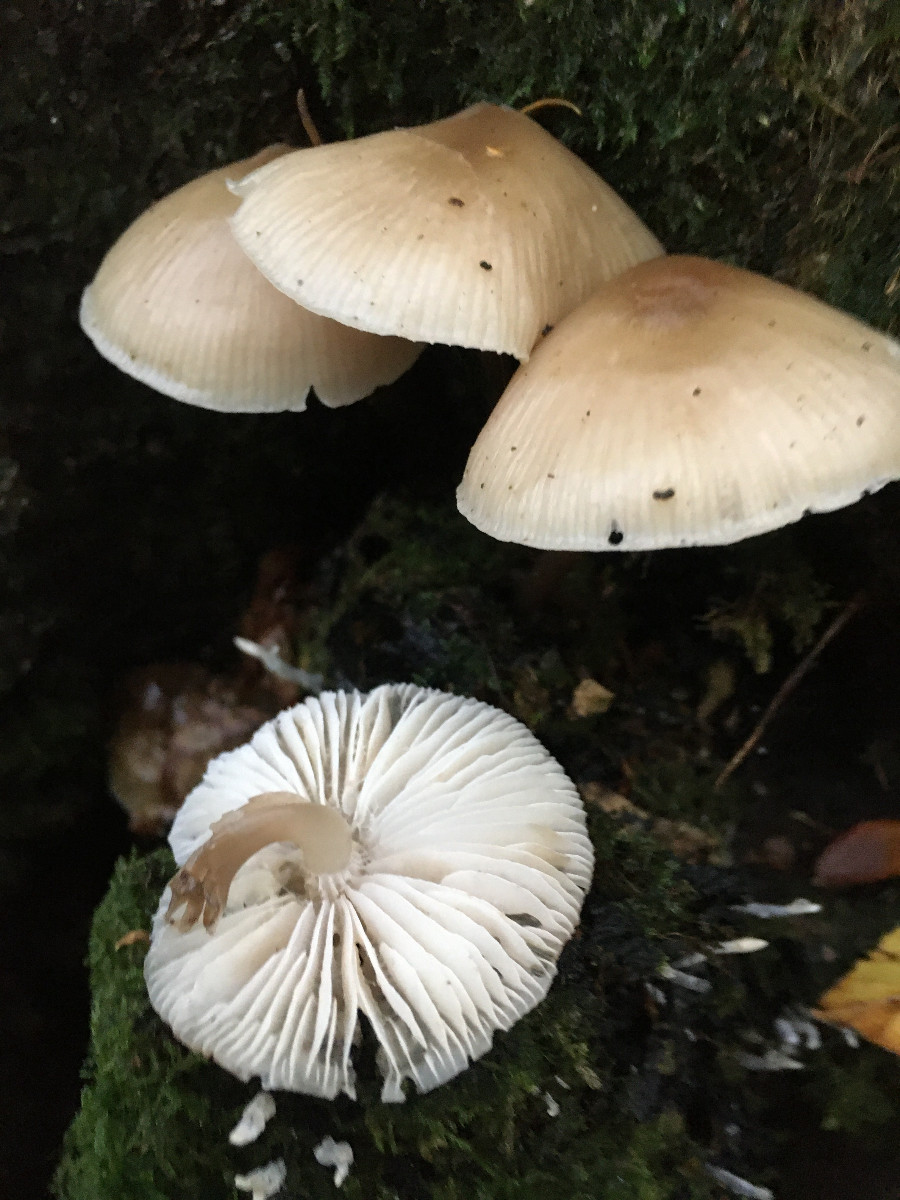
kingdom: Fungi
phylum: Basidiomycota
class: Agaricomycetes
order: Agaricales
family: Mycenaceae
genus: Mycena
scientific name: Mycena galericulata
